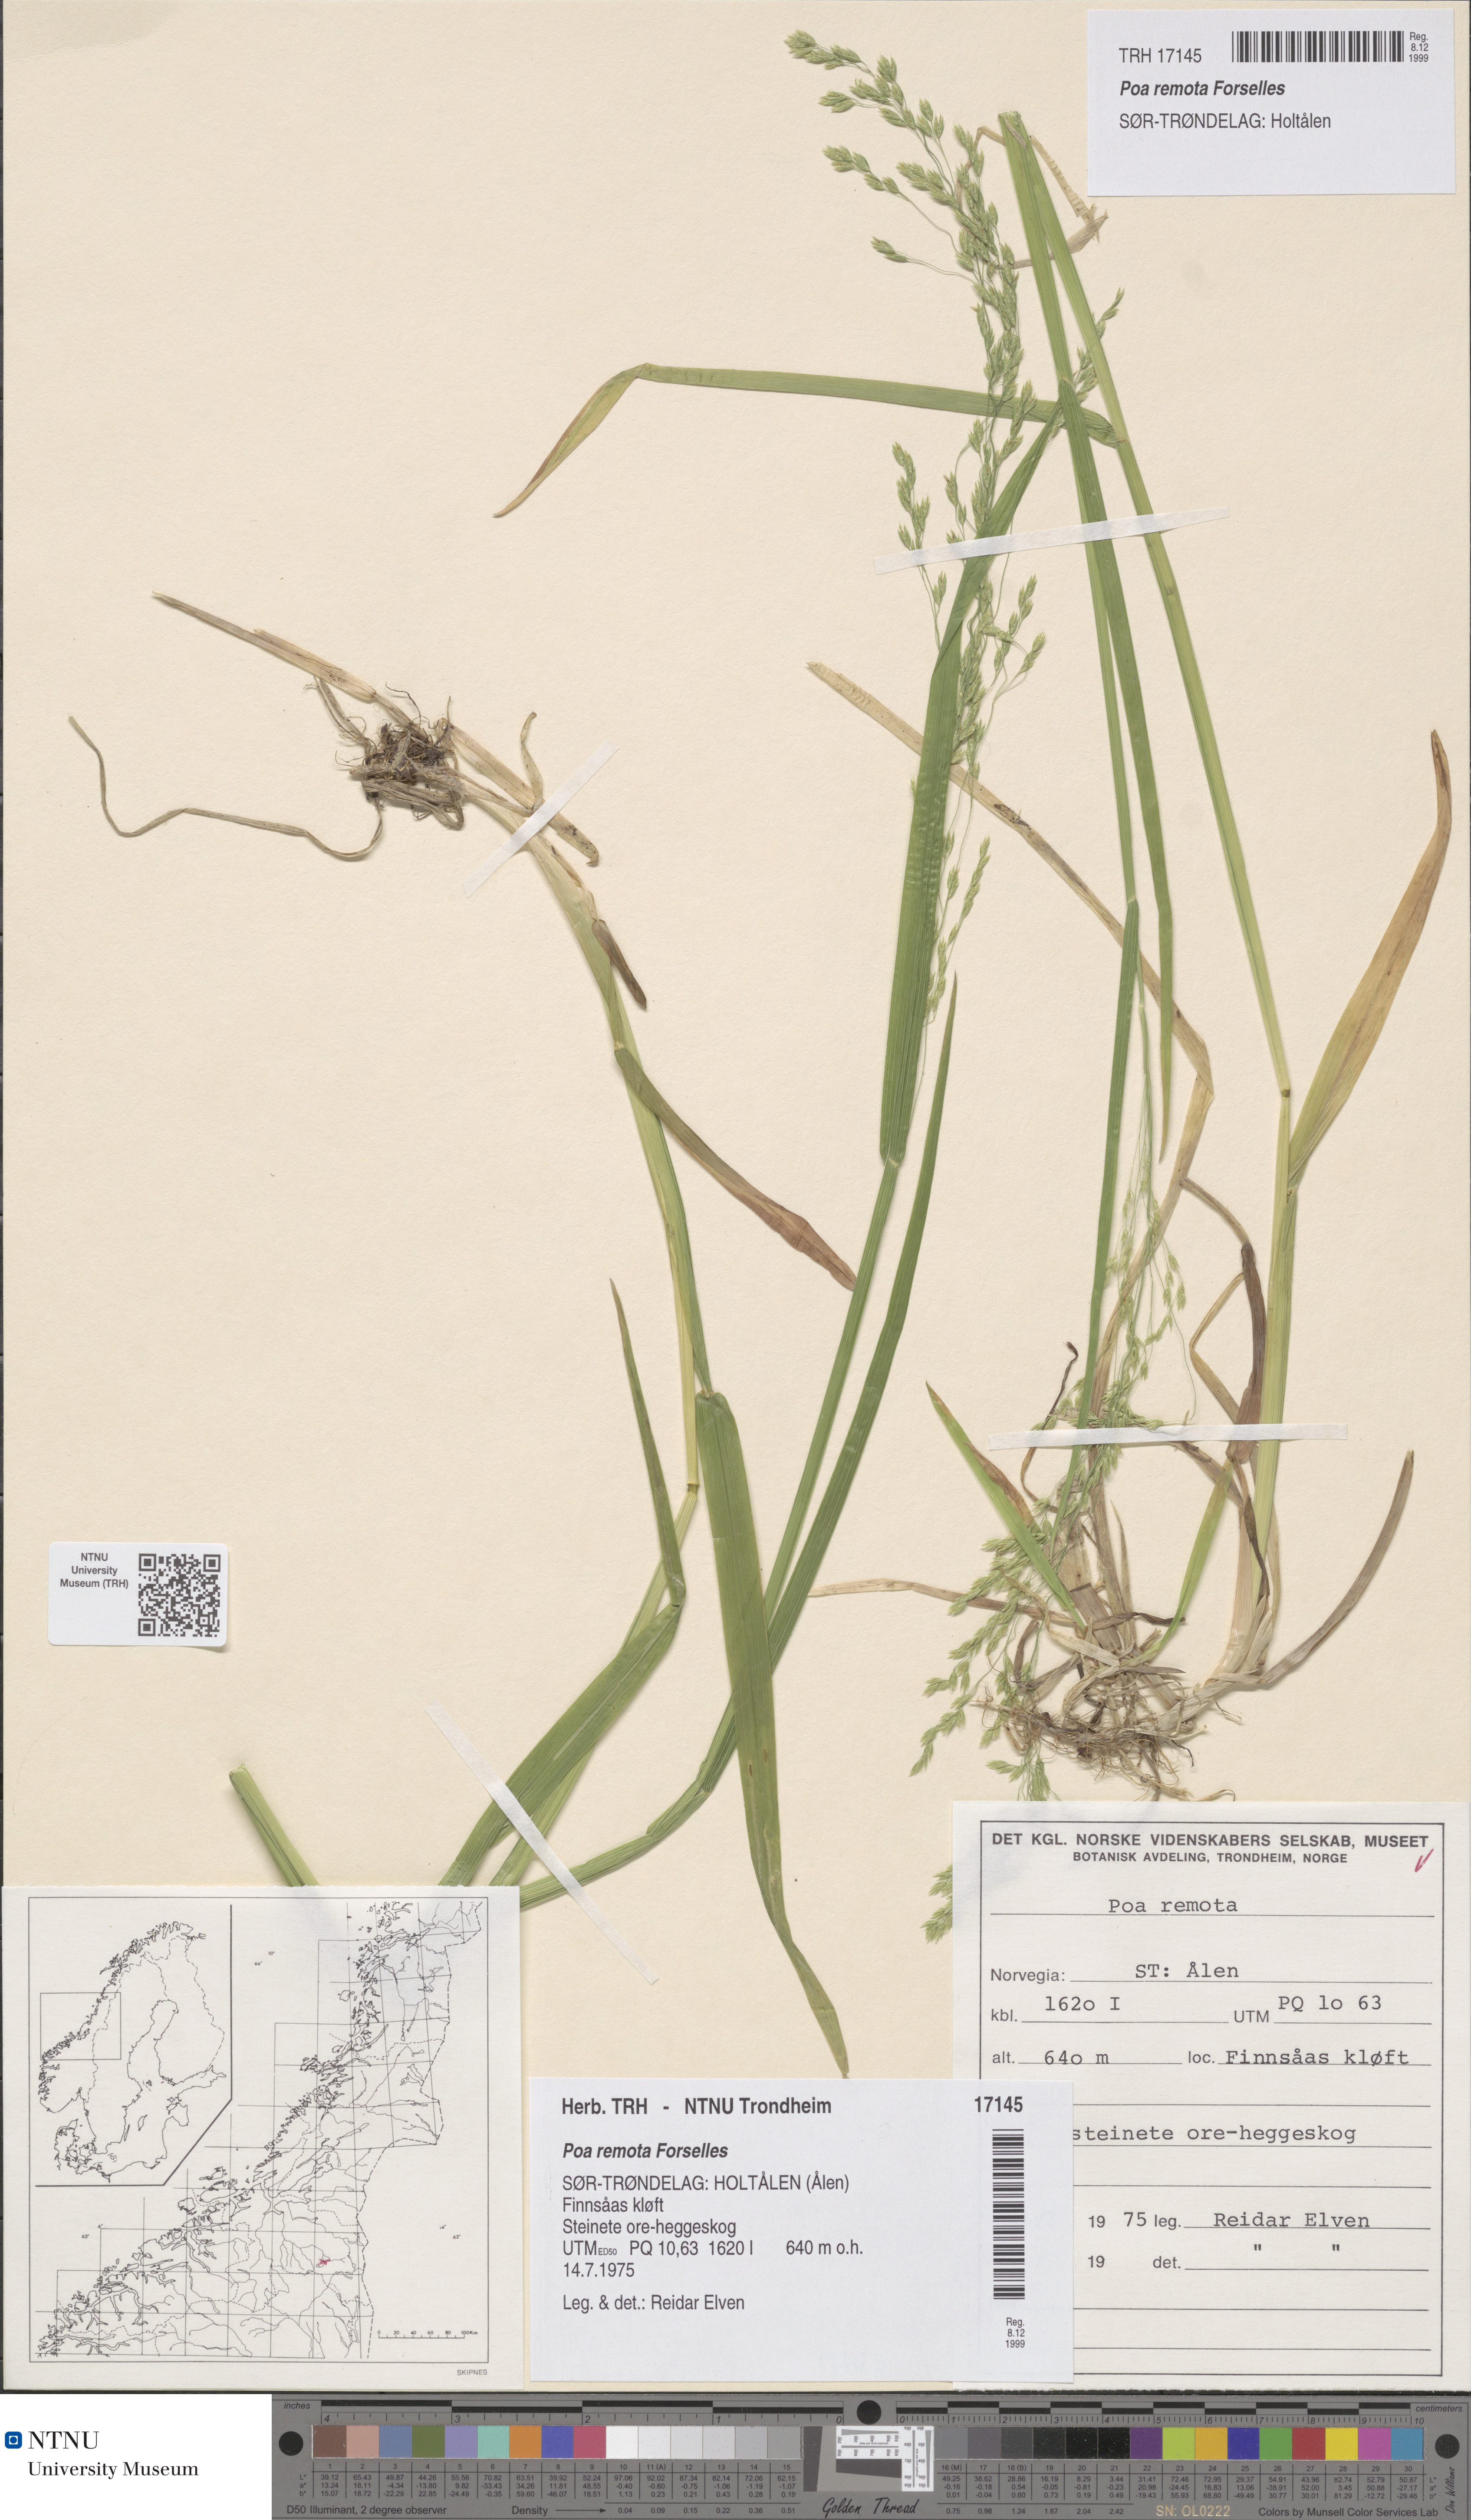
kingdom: Plantae
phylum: Tracheophyta
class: Liliopsida
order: Poales
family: Poaceae
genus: Poa
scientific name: Poa remota
